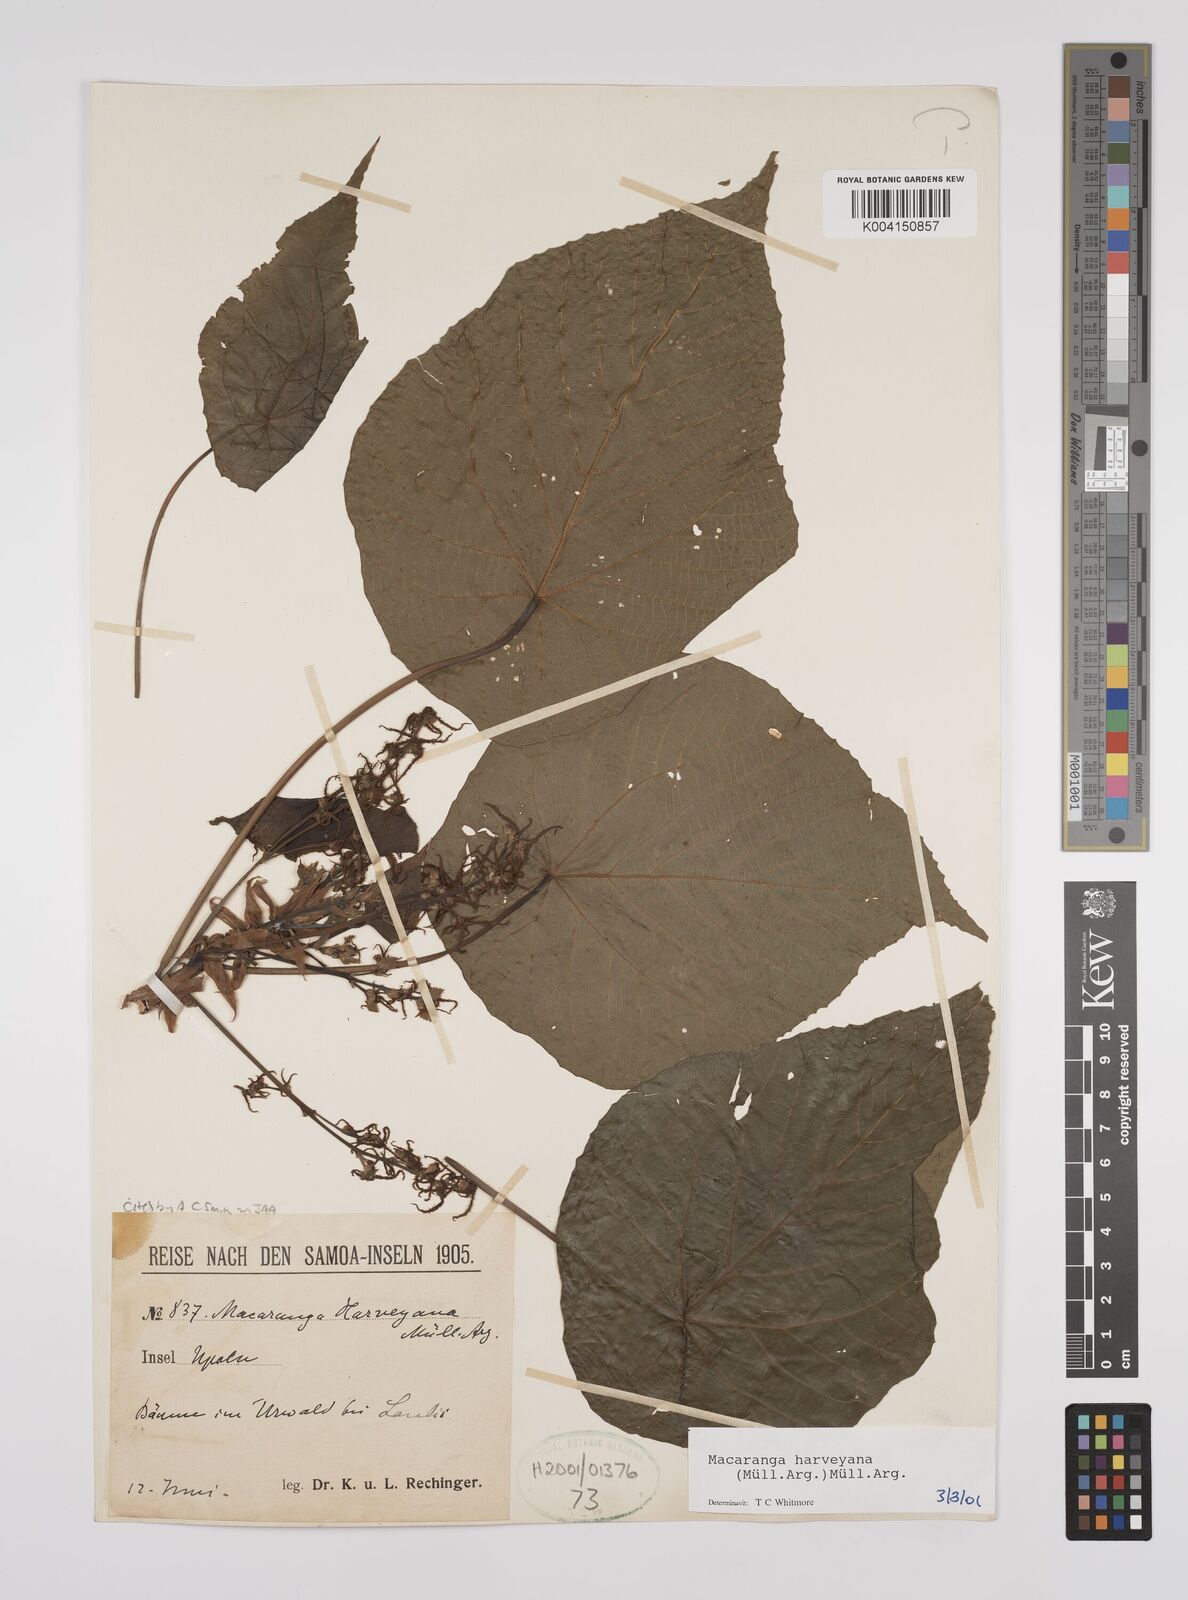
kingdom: Plantae
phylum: Tracheophyta
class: Magnoliopsida
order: Malpighiales
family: Euphorbiaceae
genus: Macaranga
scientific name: Macaranga harveyana
